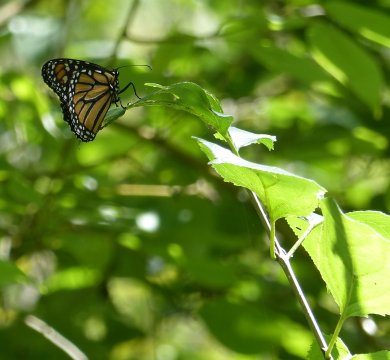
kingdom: Animalia
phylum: Arthropoda
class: Insecta
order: Lepidoptera
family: Nymphalidae
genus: Danaus
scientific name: Danaus plexippus
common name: Monarch
